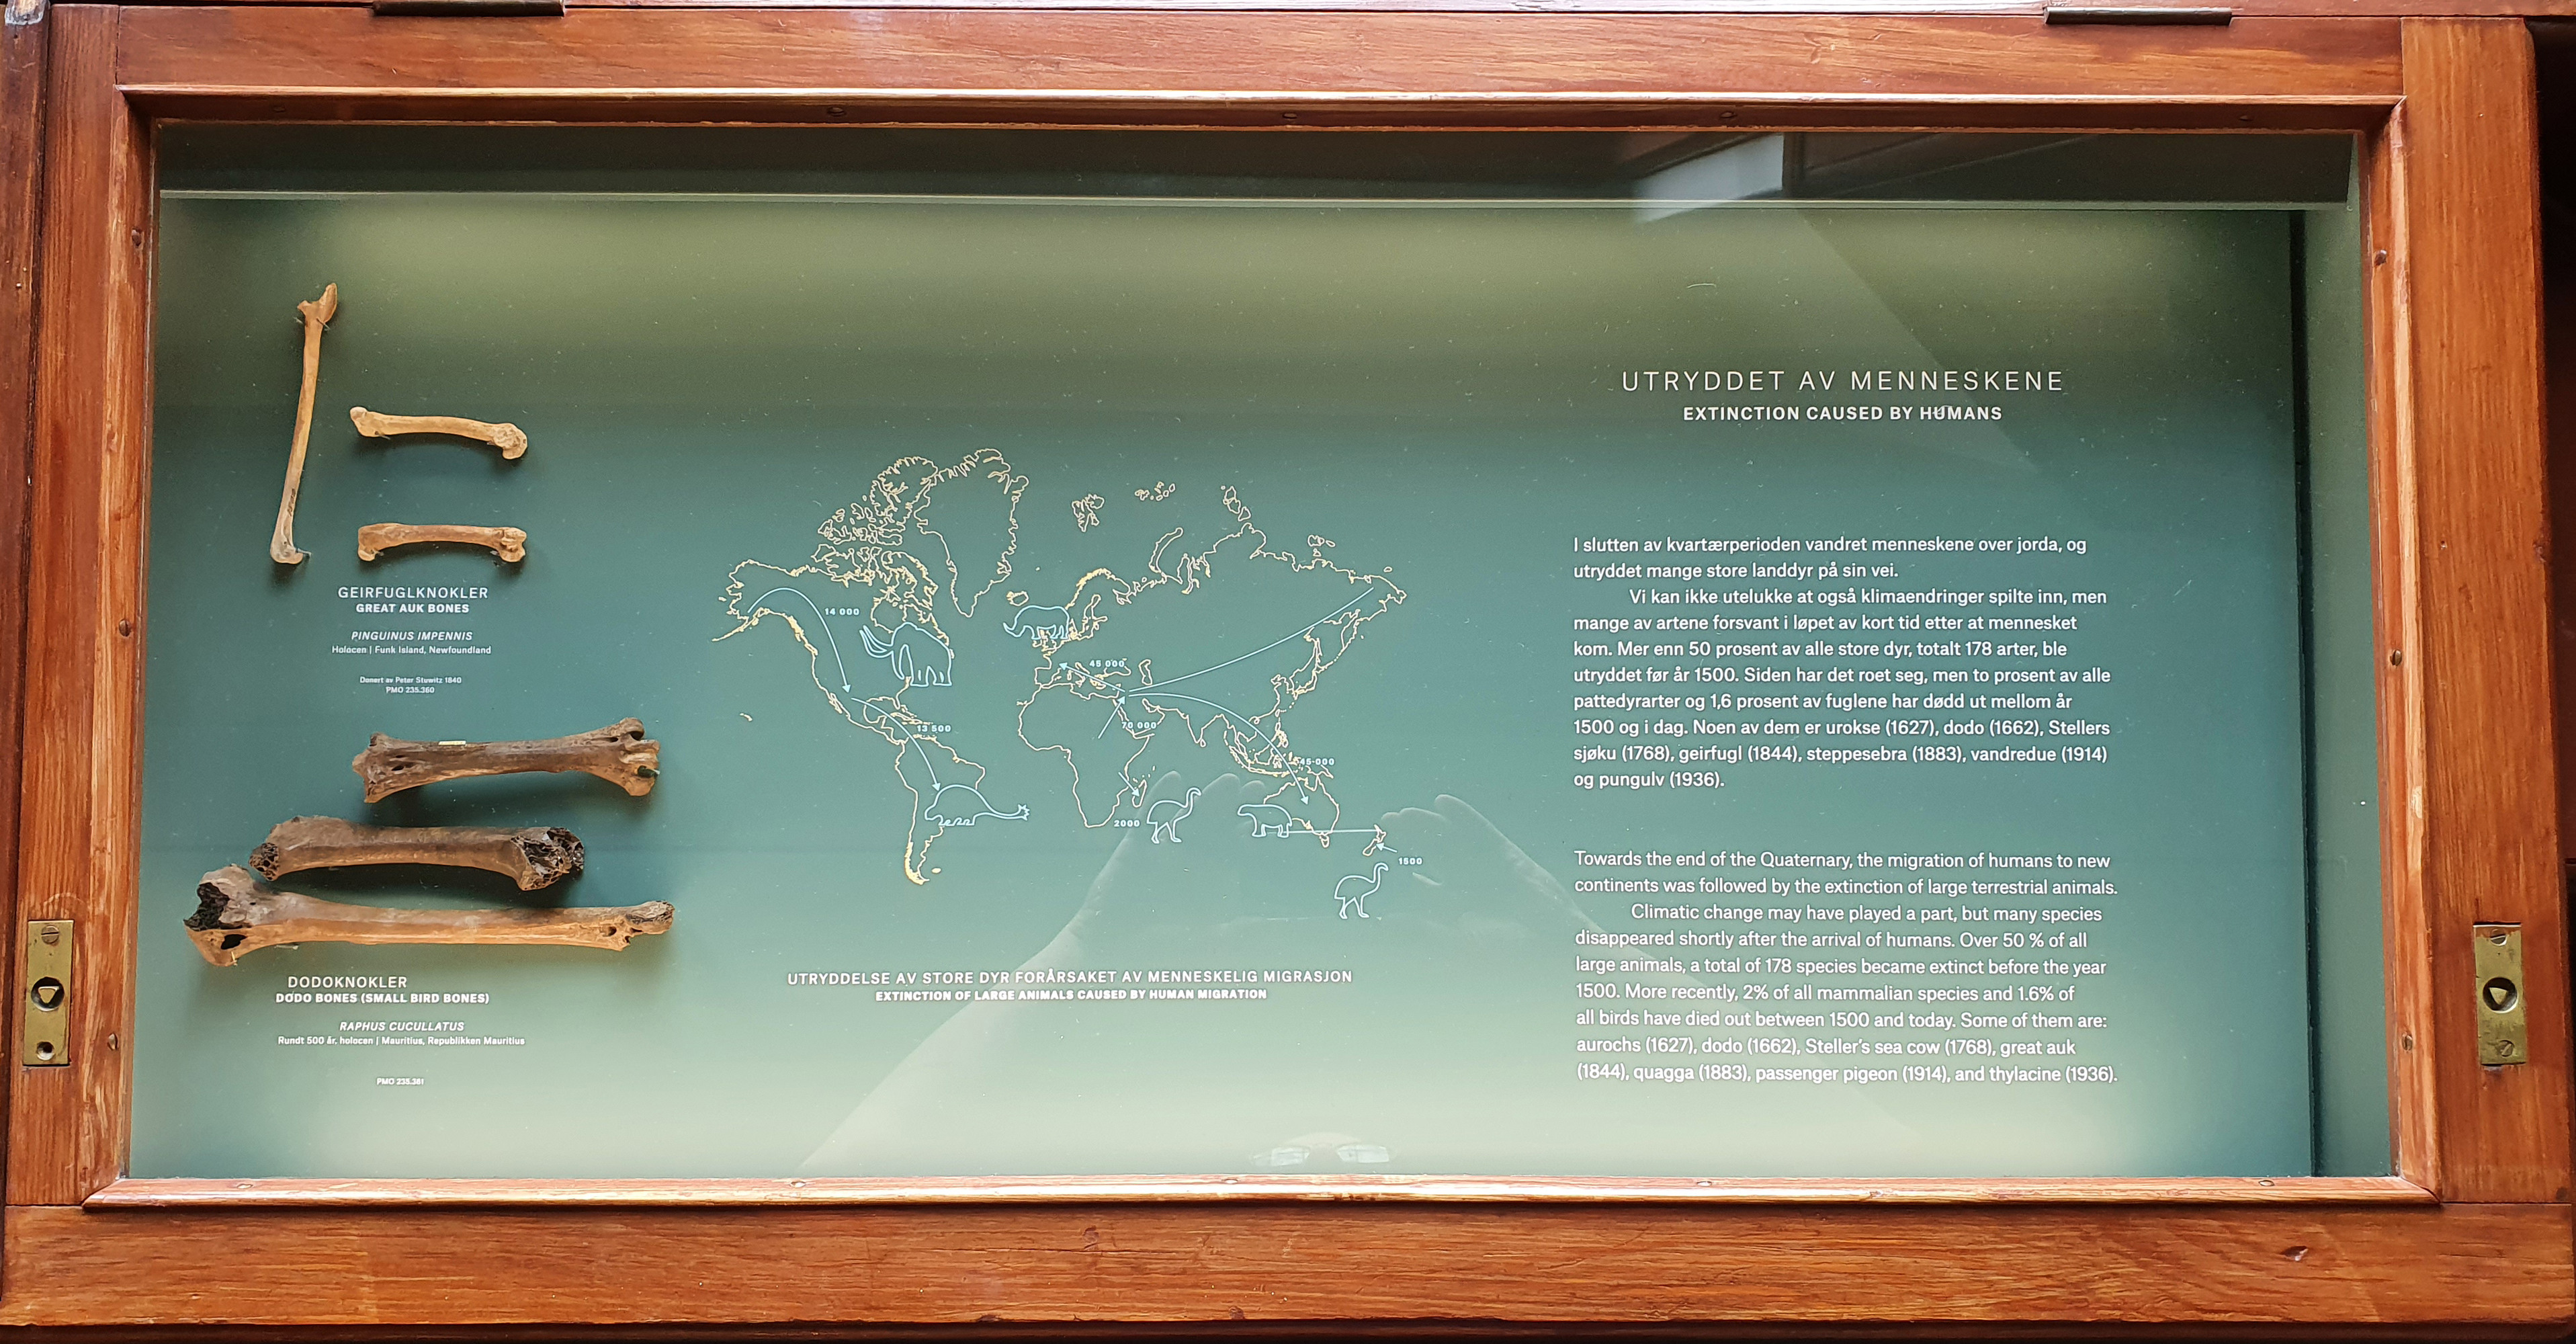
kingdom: Animalia
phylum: Chordata
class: Aves
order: Charadriiformes
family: Alcidae
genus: Pinguinus
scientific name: Pinguinus impennis
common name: Great auk
